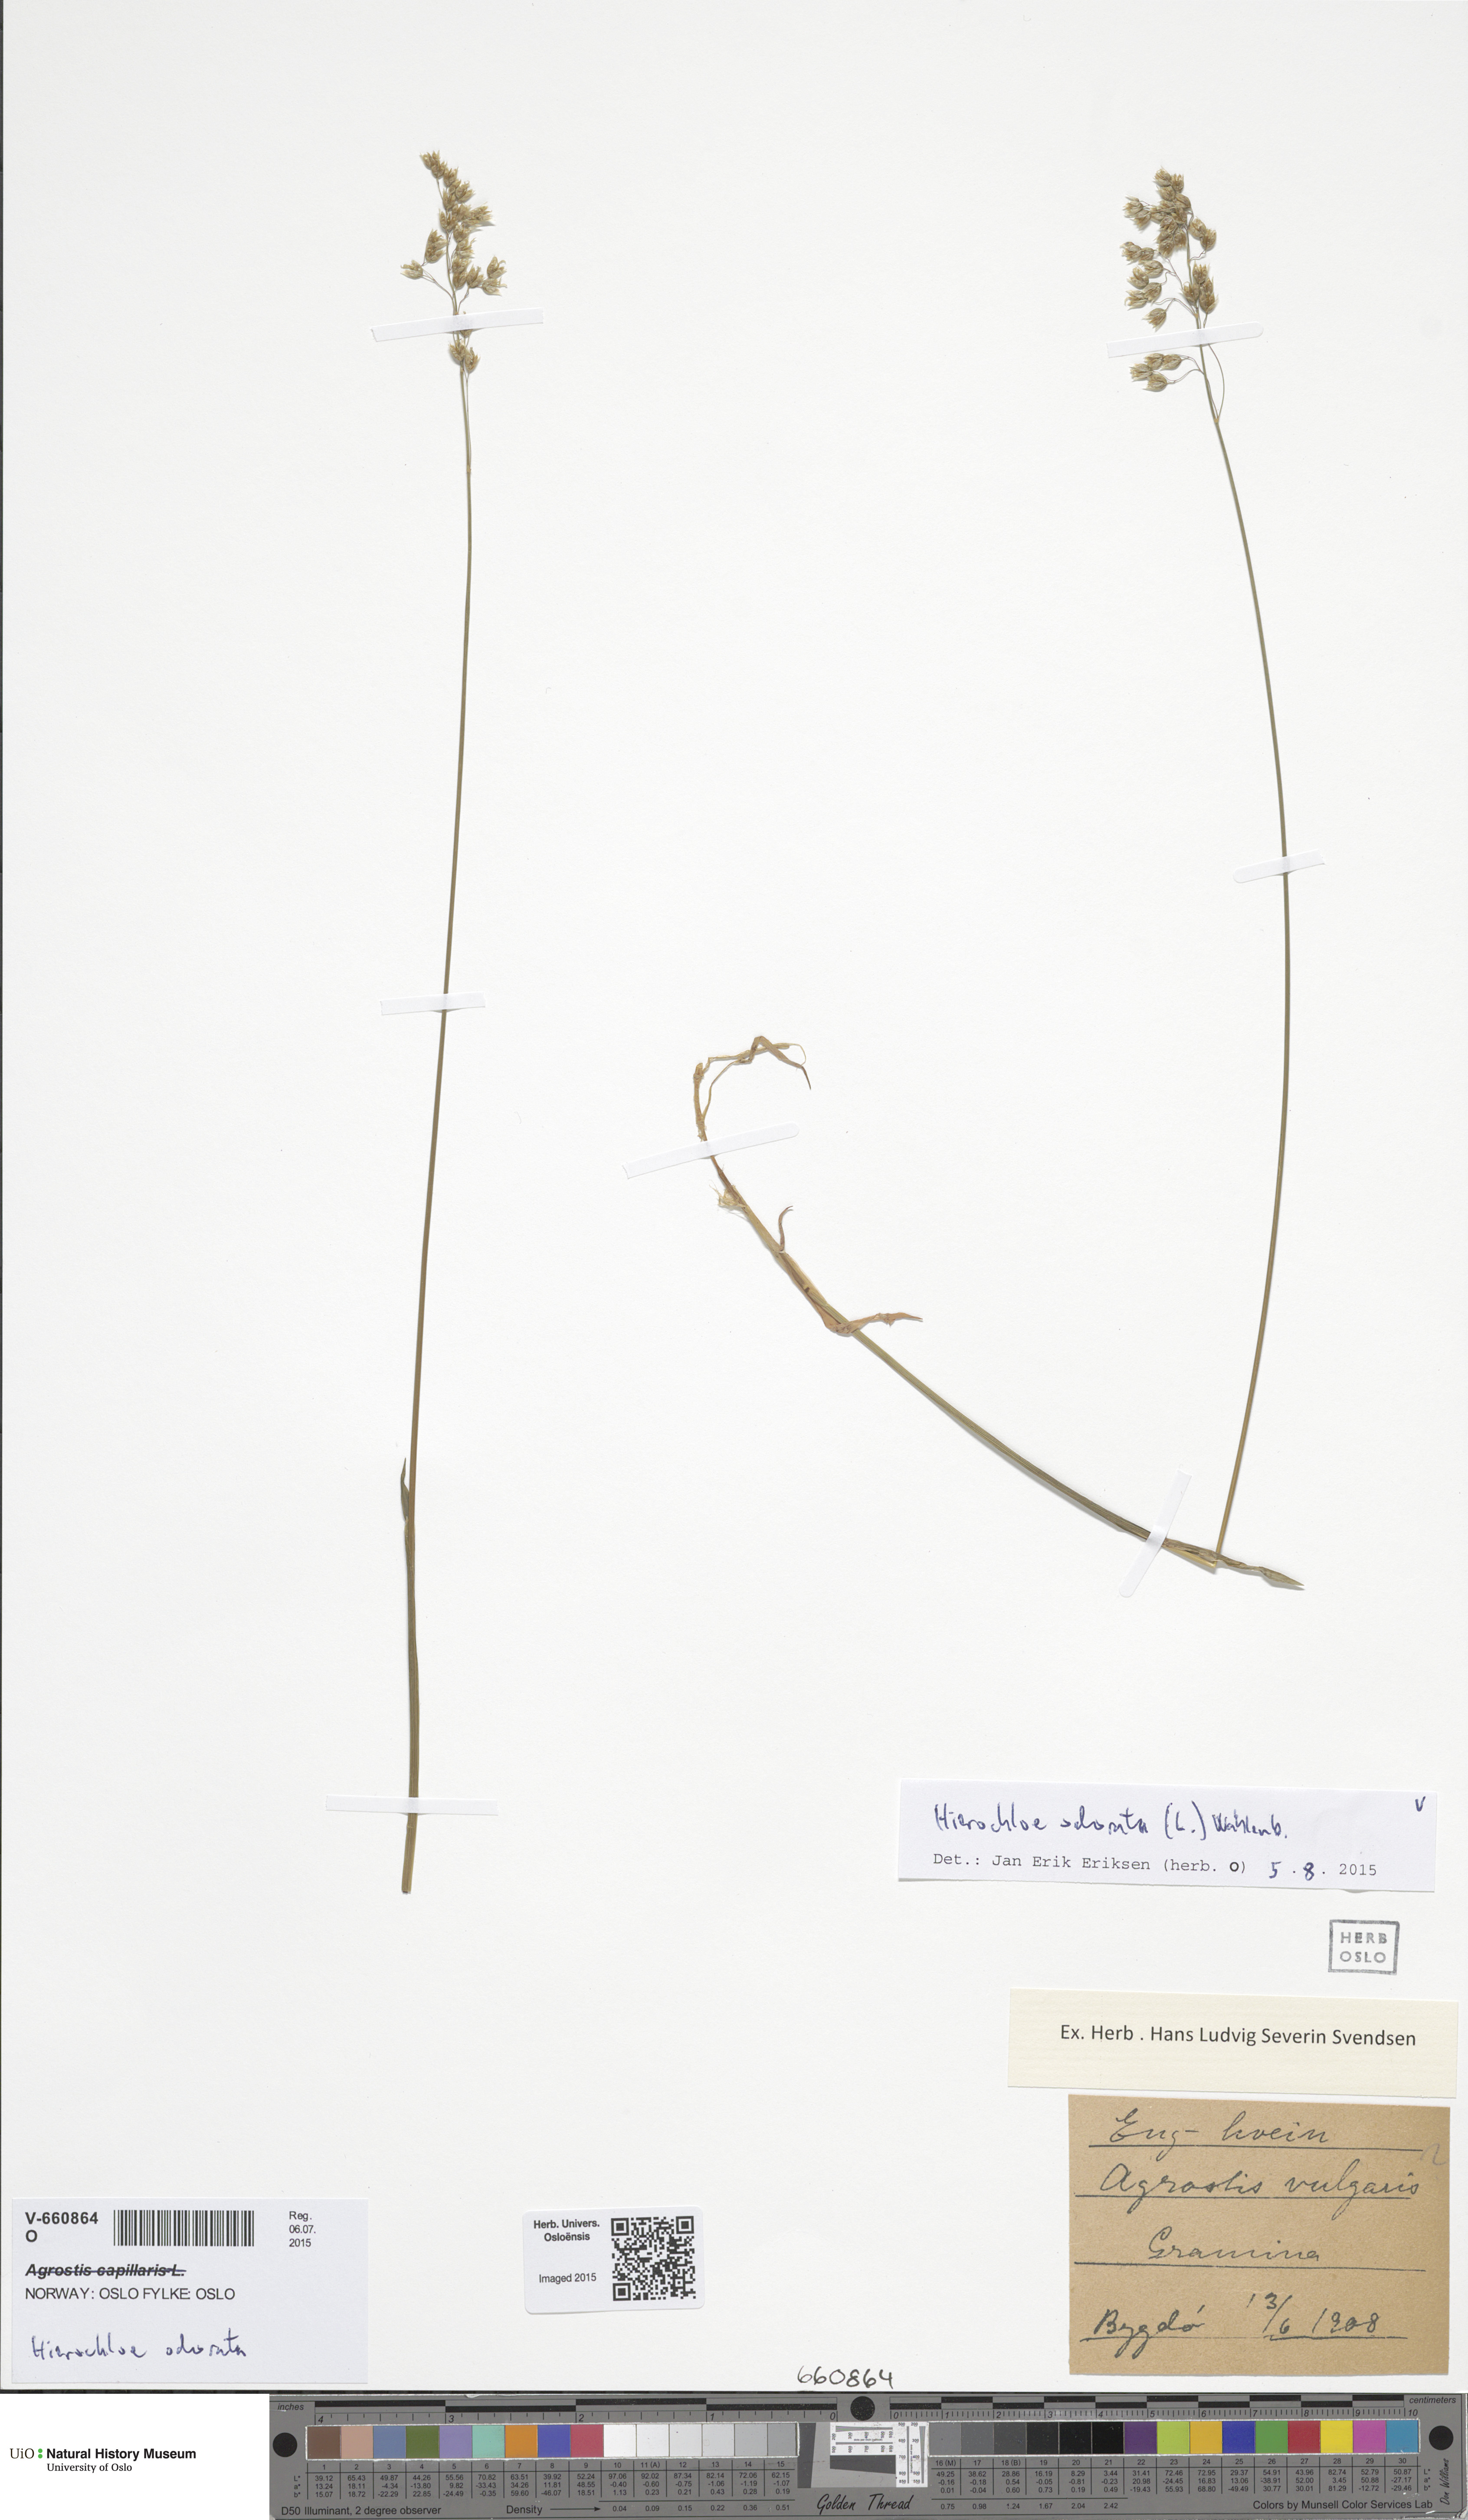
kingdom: Plantae
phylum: Tracheophyta
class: Liliopsida
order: Poales
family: Poaceae
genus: Anthoxanthum
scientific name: Anthoxanthum nitens
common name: Holy grass
